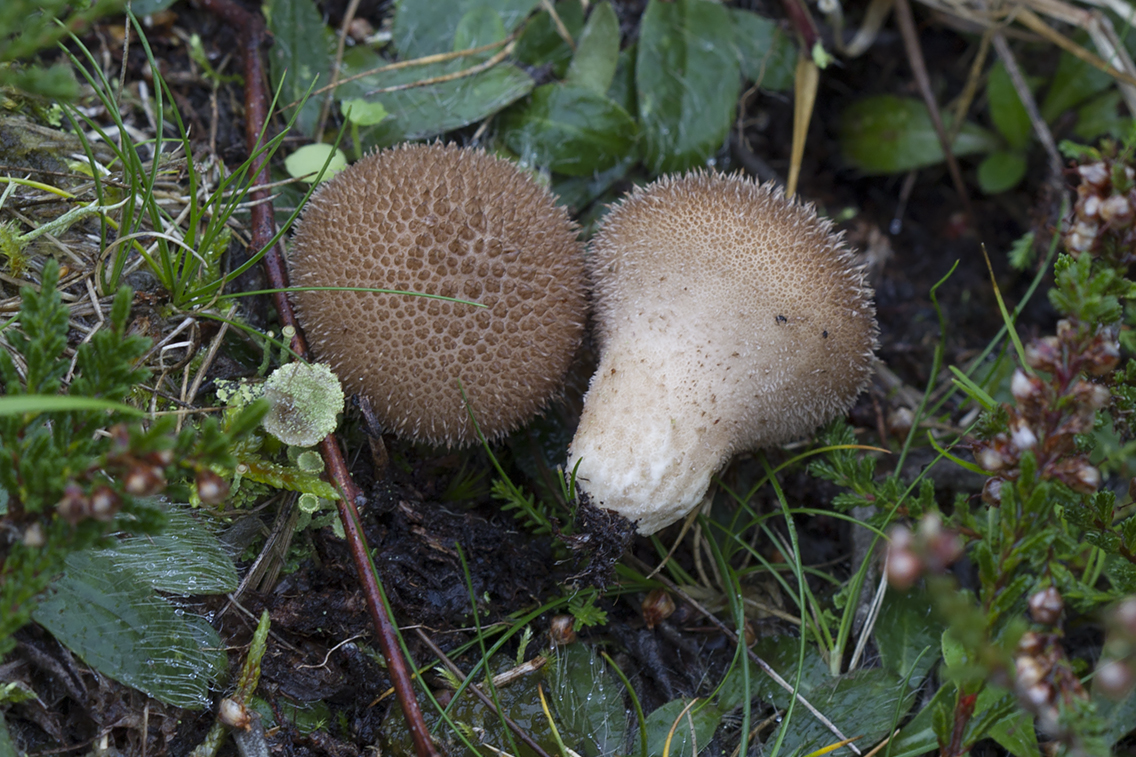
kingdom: Fungi
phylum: Basidiomycota
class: Agaricomycetes
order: Agaricales
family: Lycoperdaceae
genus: Lycoperdon
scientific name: Lycoperdon nigrescens
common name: sortagtig støvbold
